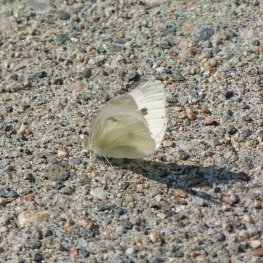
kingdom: Animalia
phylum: Arthropoda
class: Insecta
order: Lepidoptera
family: Pieridae
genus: Pieris
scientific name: Pieris rapae
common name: Cabbage White
